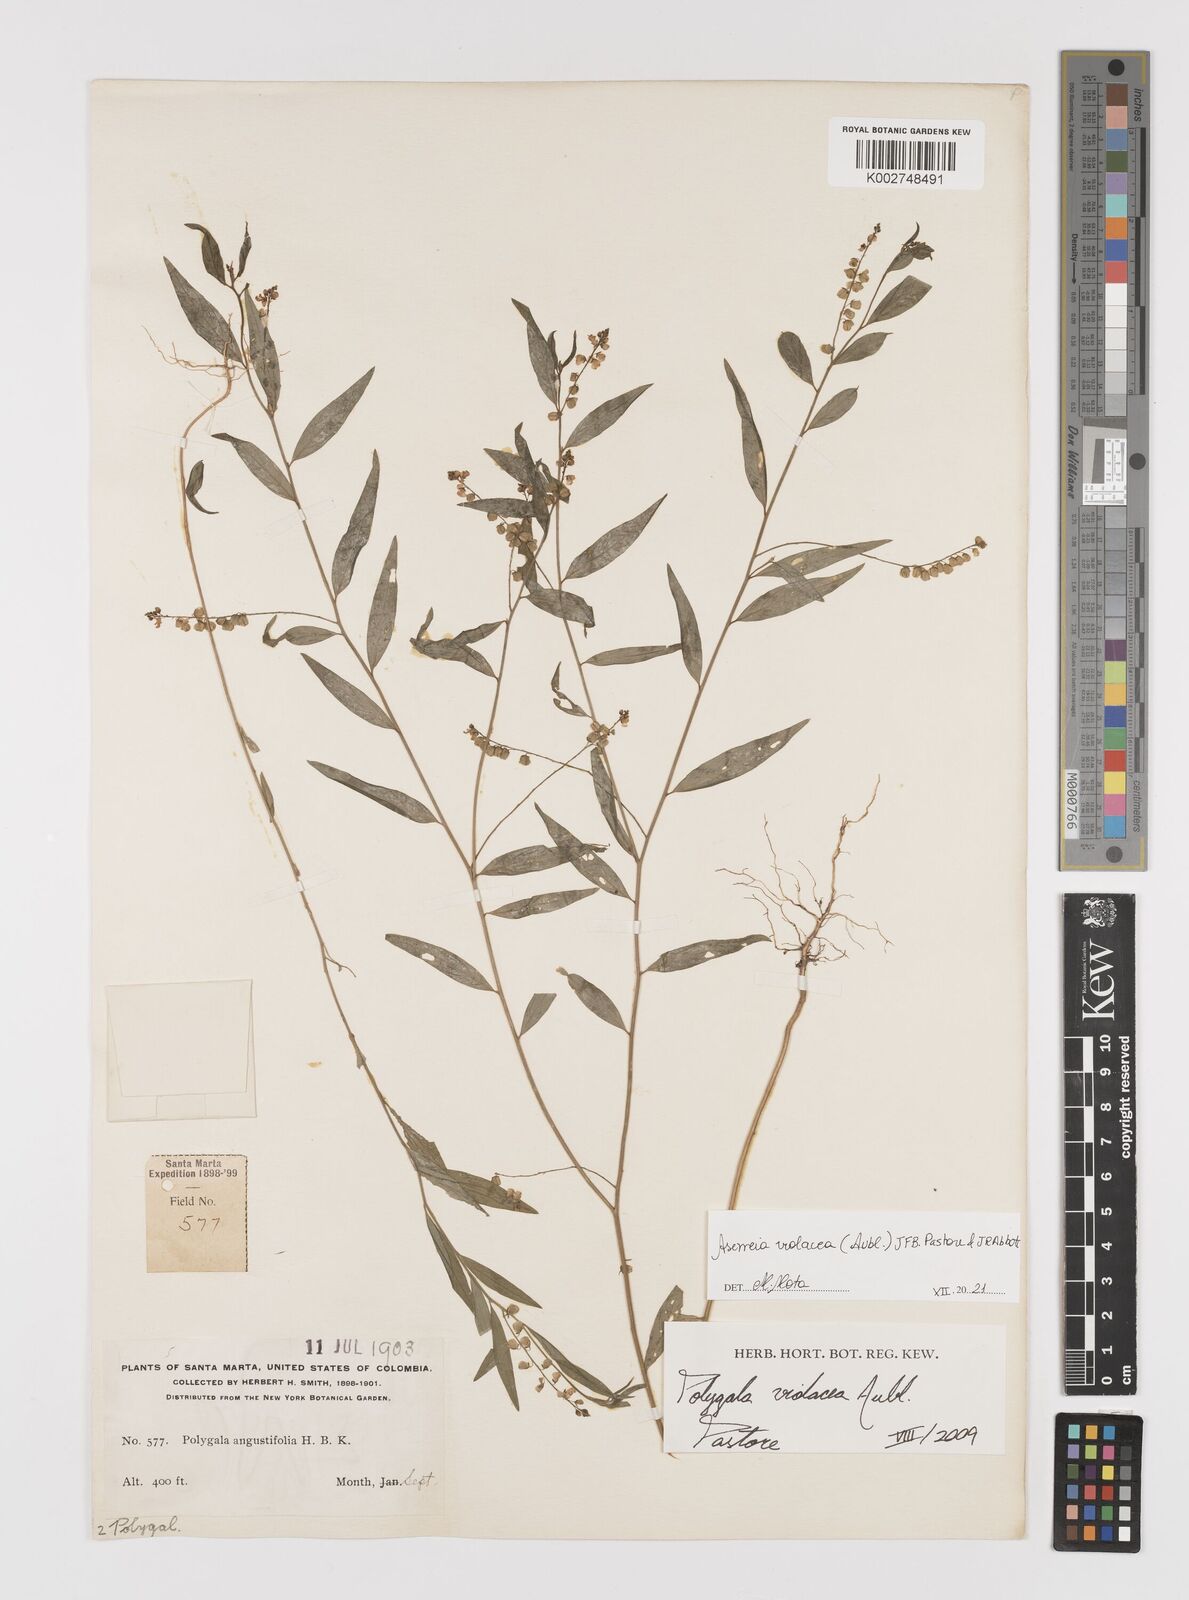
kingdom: Plantae
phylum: Tracheophyta
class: Magnoliopsida
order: Fabales
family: Polygalaceae
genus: Asemeia
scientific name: Asemeia violacea
